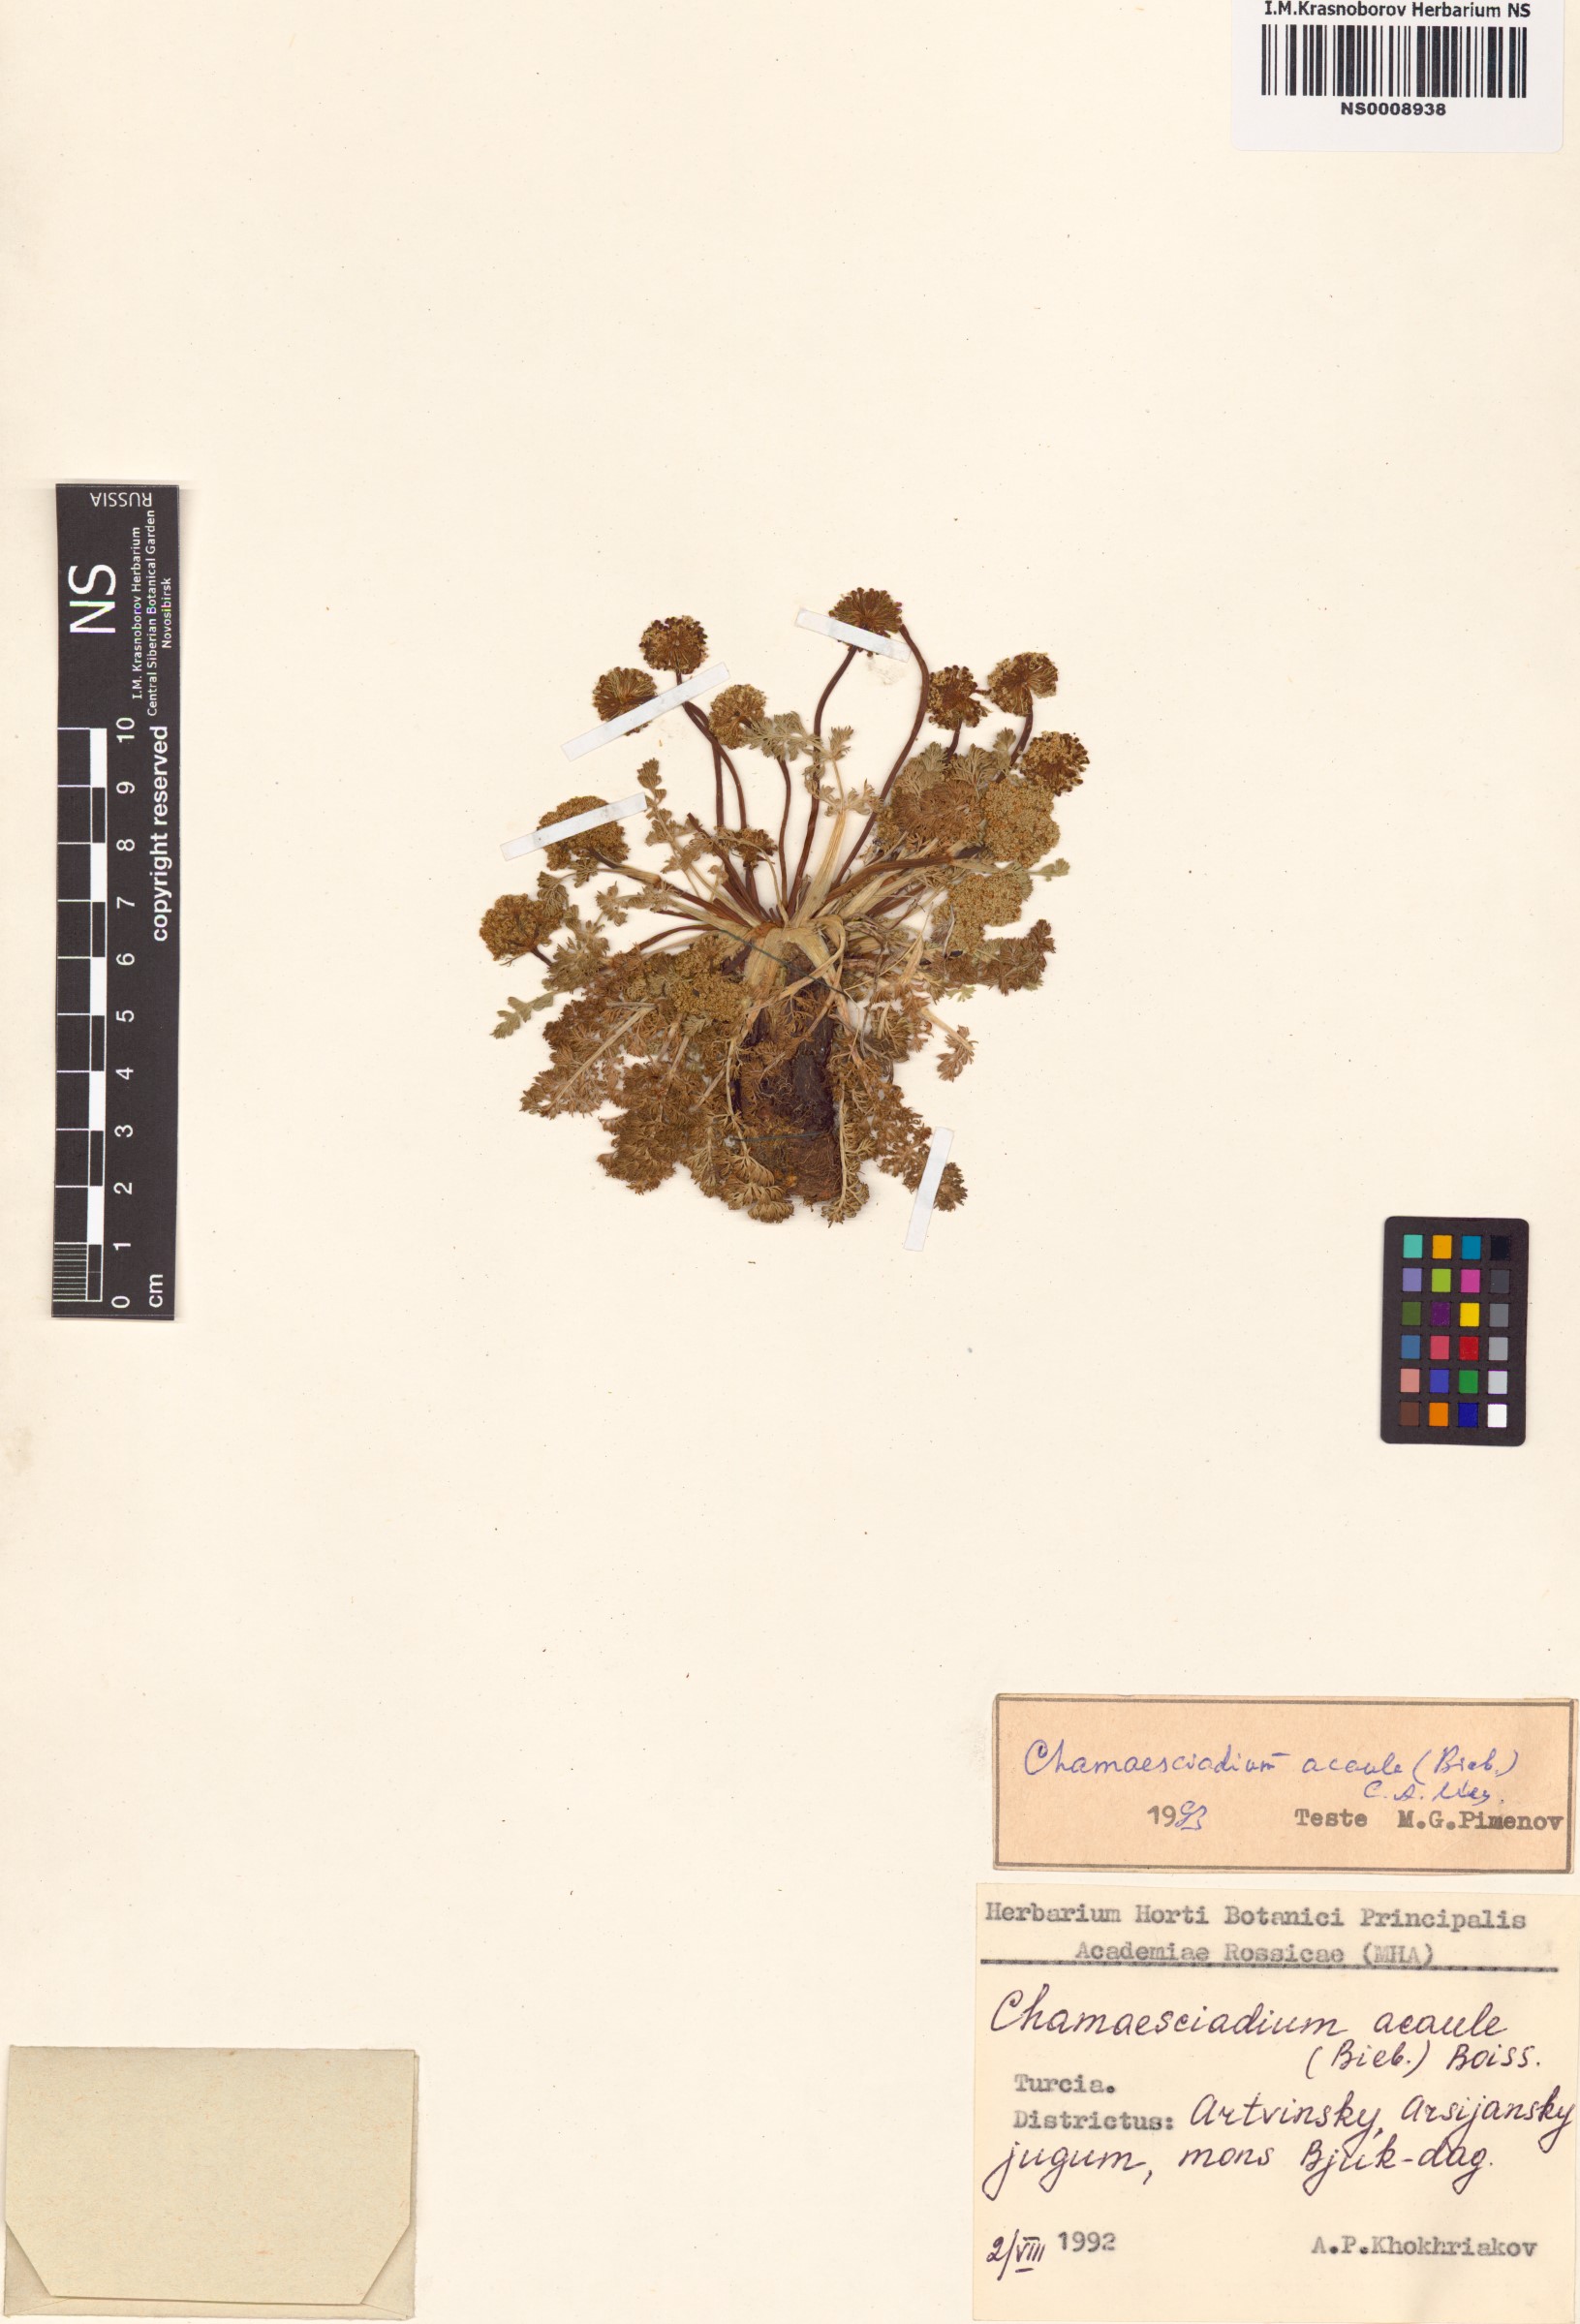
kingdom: Plantae
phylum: Tracheophyta
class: Magnoliopsida
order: Apiales
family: Apiaceae
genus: Chamaesciadium
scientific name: Chamaesciadium acaule
